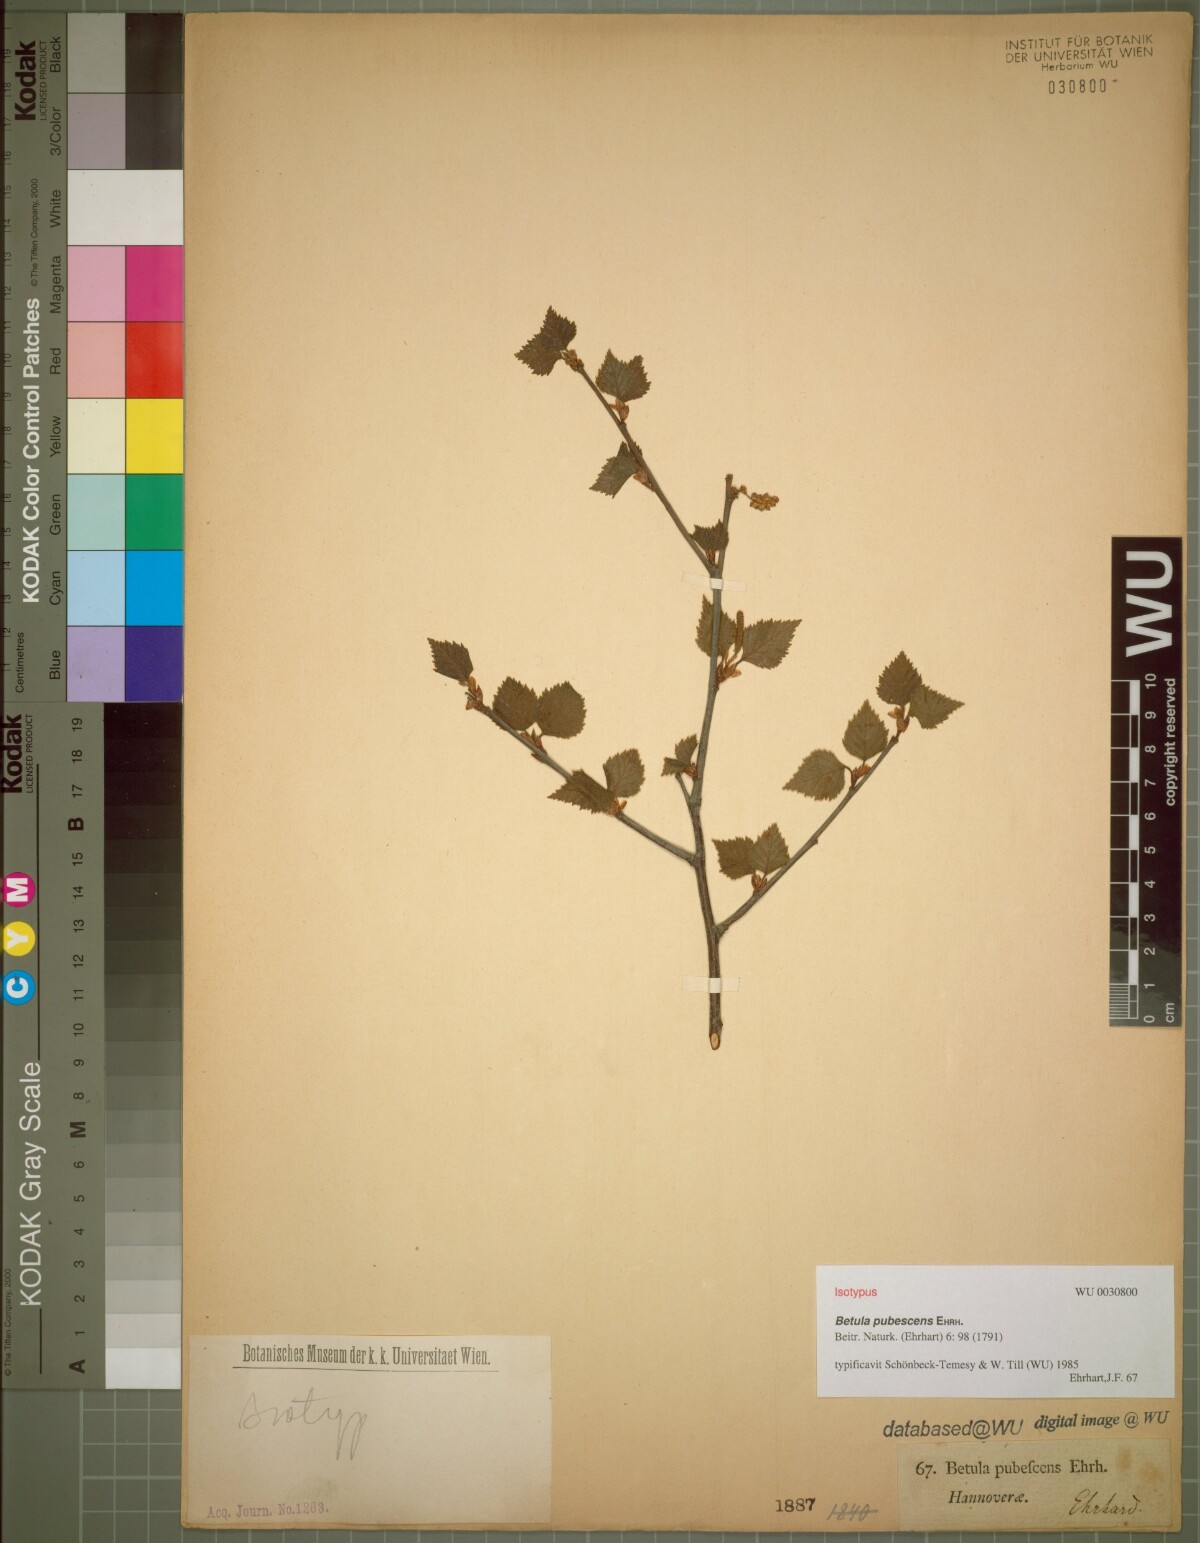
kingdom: Plantae
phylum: Tracheophyta
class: Magnoliopsida
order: Fagales
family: Betulaceae
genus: Betula
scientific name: Betula pubescens
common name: Downy birch
